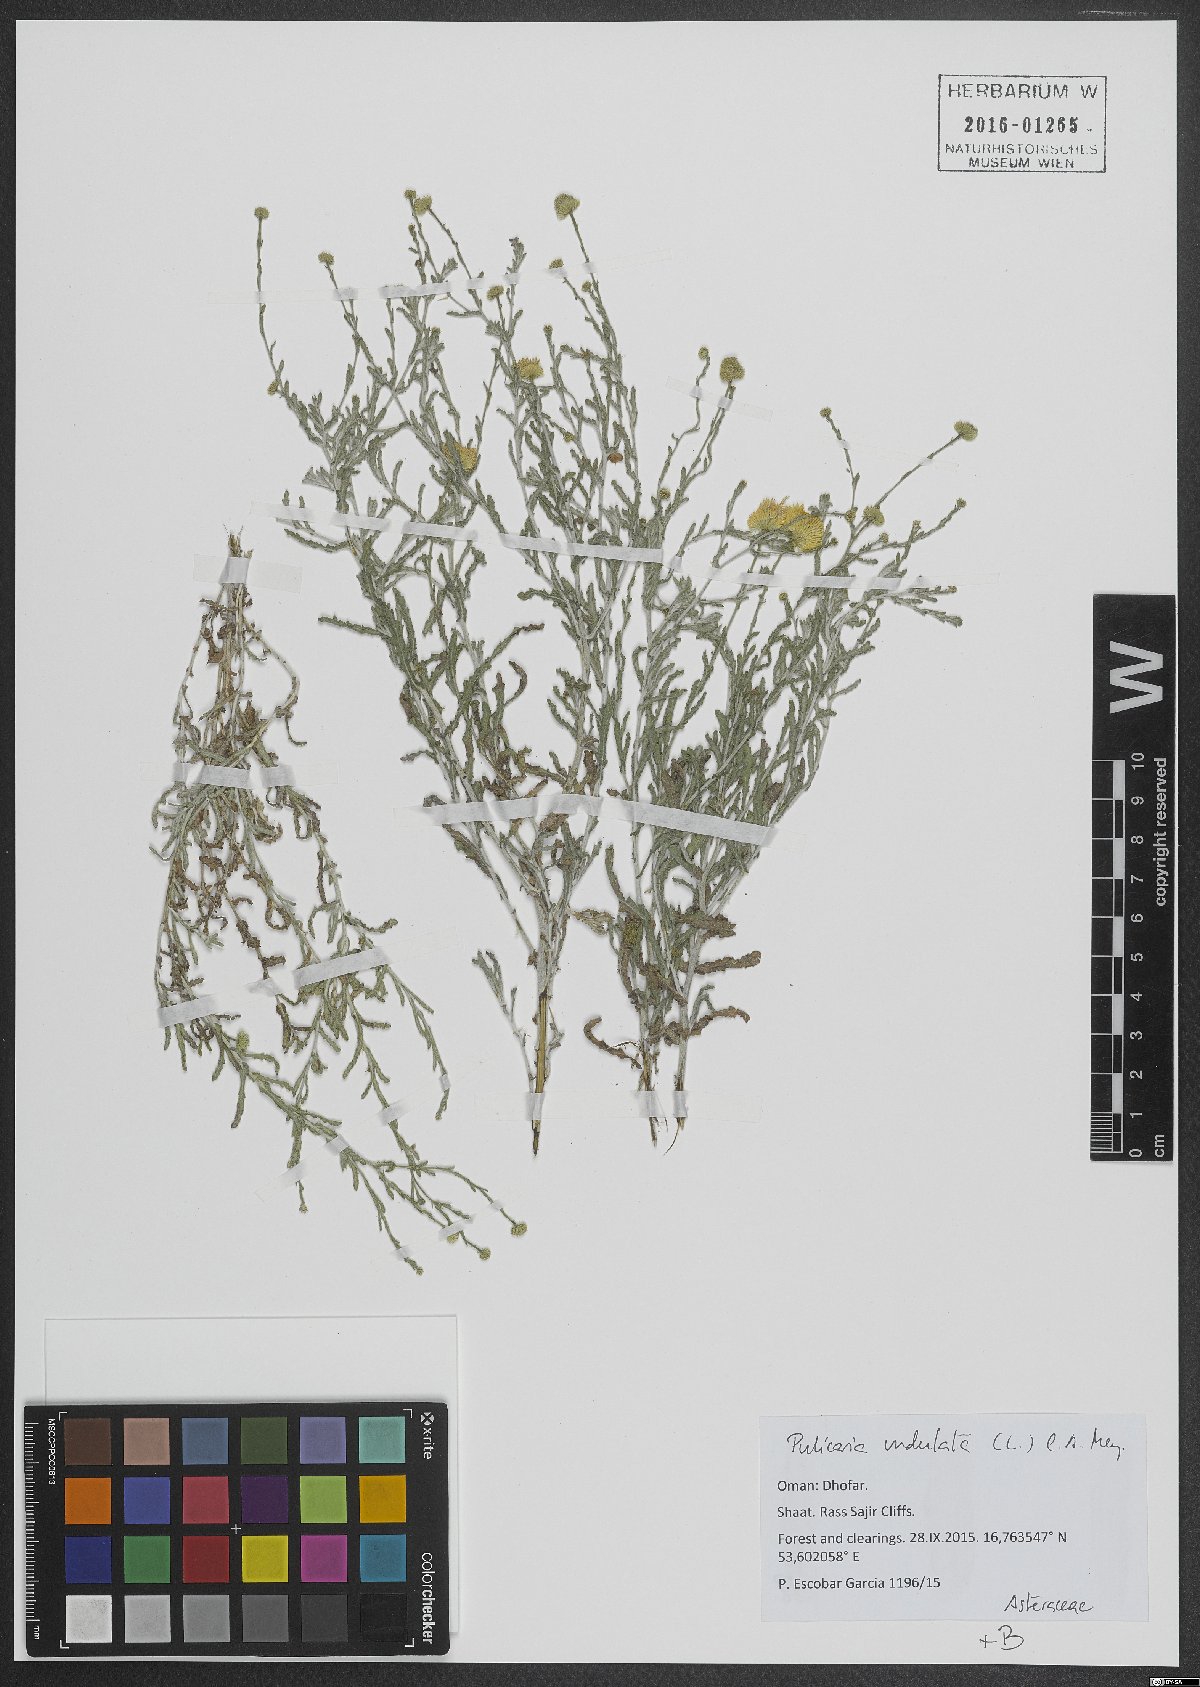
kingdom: Plantae
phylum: Tracheophyta
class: Magnoliopsida
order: Asterales
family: Asteraceae
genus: Pulicaria
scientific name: Pulicaria undulata
